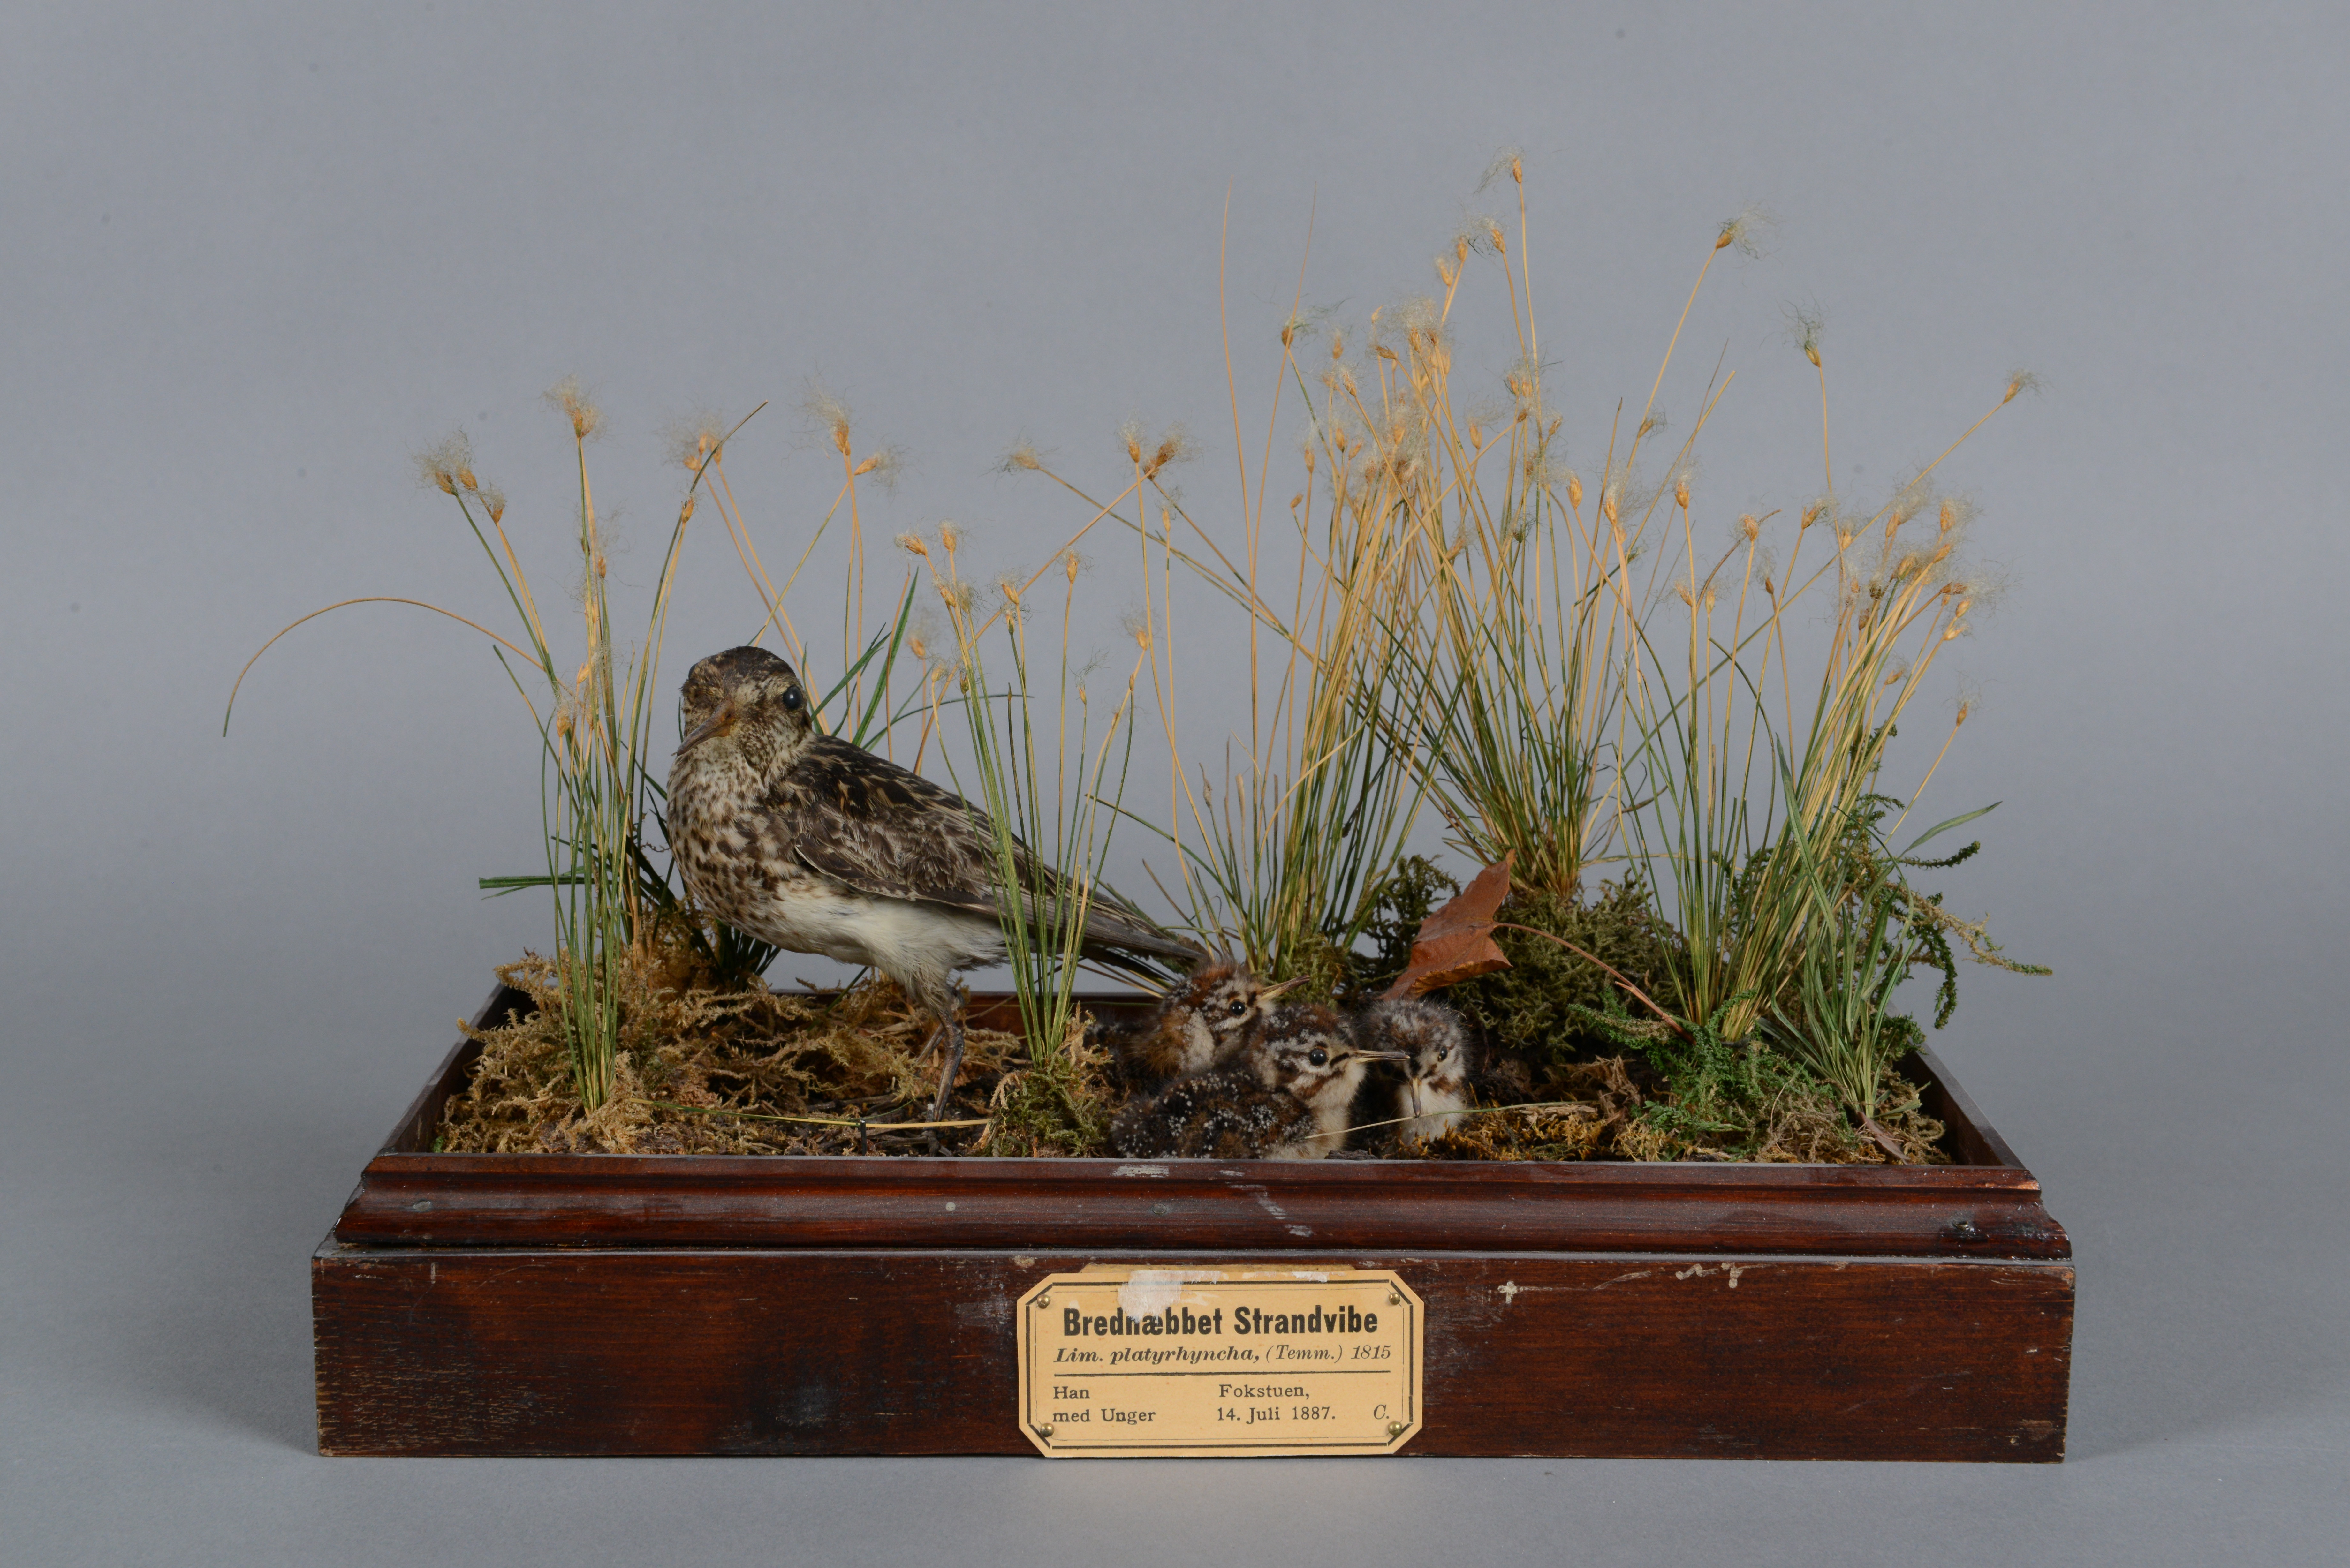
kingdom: Animalia
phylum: Chordata
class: Aves
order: Charadriiformes
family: Scolopacidae
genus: Calidris
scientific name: Calidris falcinellus
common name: Broad-billed sandpiper
